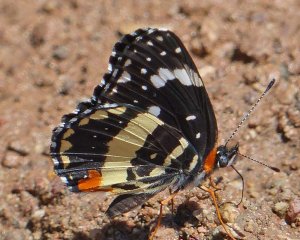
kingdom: Animalia
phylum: Arthropoda
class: Insecta
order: Lepidoptera
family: Nymphalidae
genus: Chlosyne
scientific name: Chlosyne lacinia
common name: Bordered Patch
